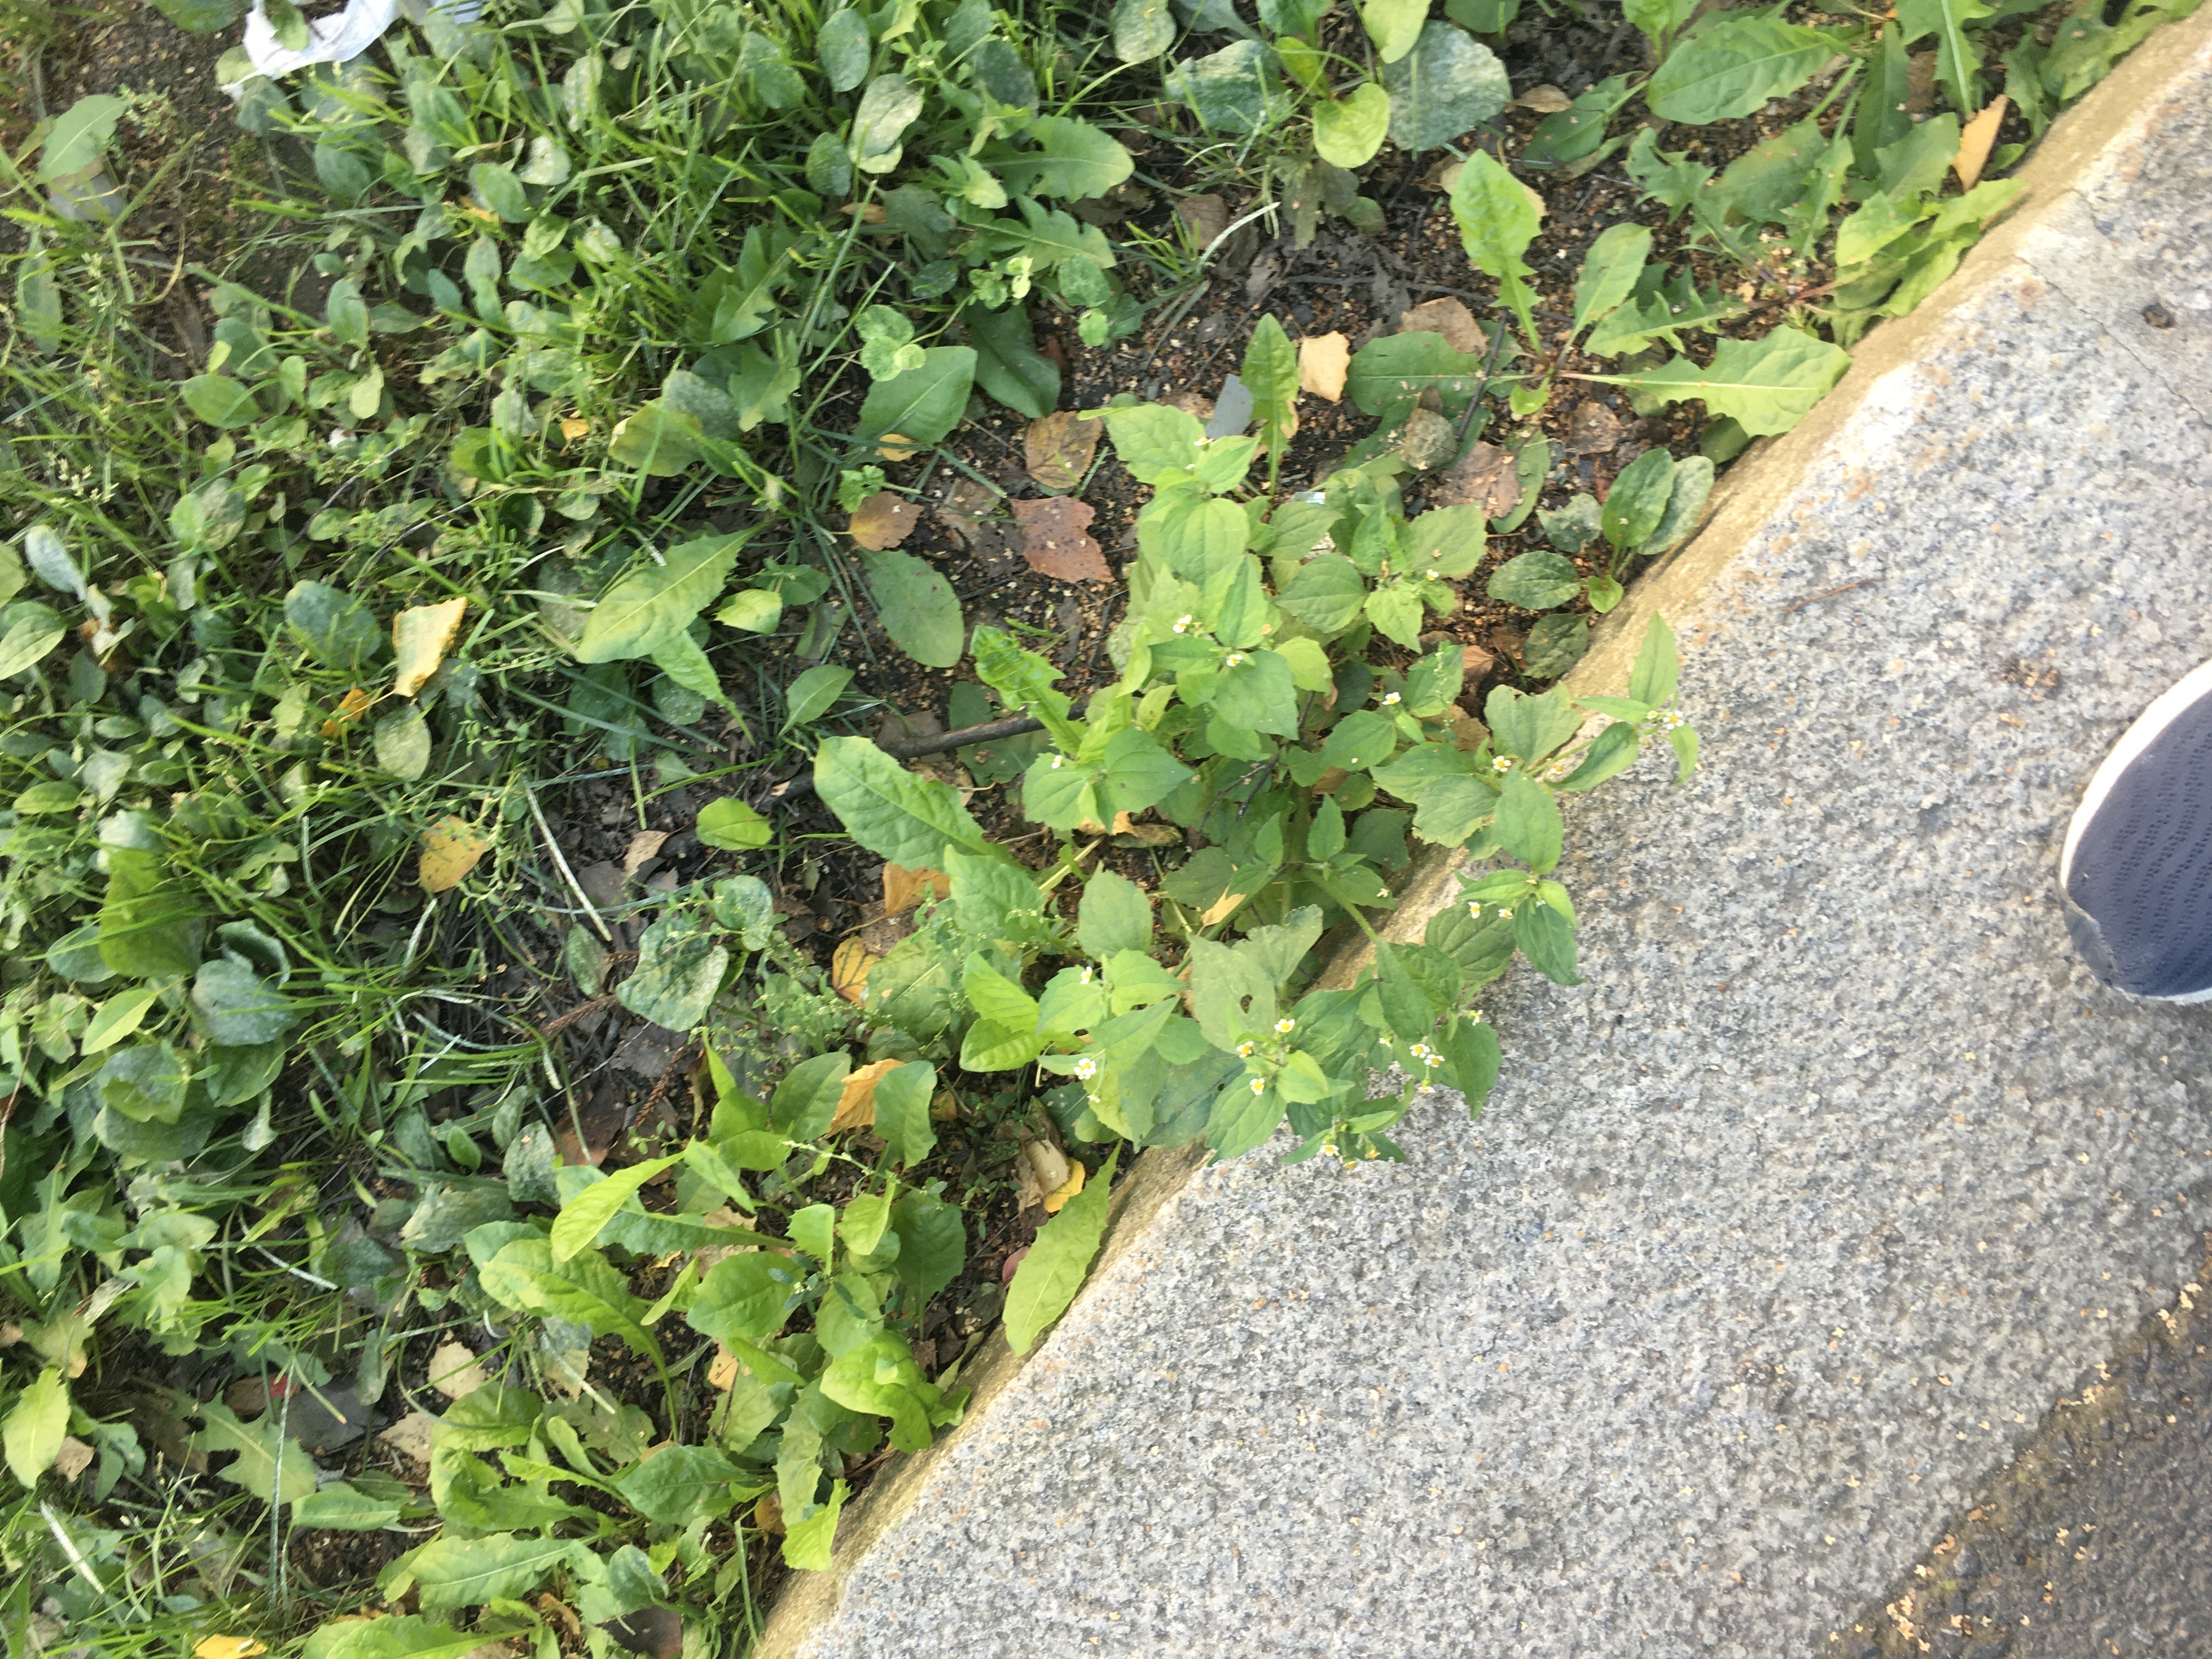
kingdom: Plantae
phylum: Tracheophyta
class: Magnoliopsida
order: Asterales
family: Asteraceae
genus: Galinsoga
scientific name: Galinsoga quadriradiata
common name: nesleskjellfrø
